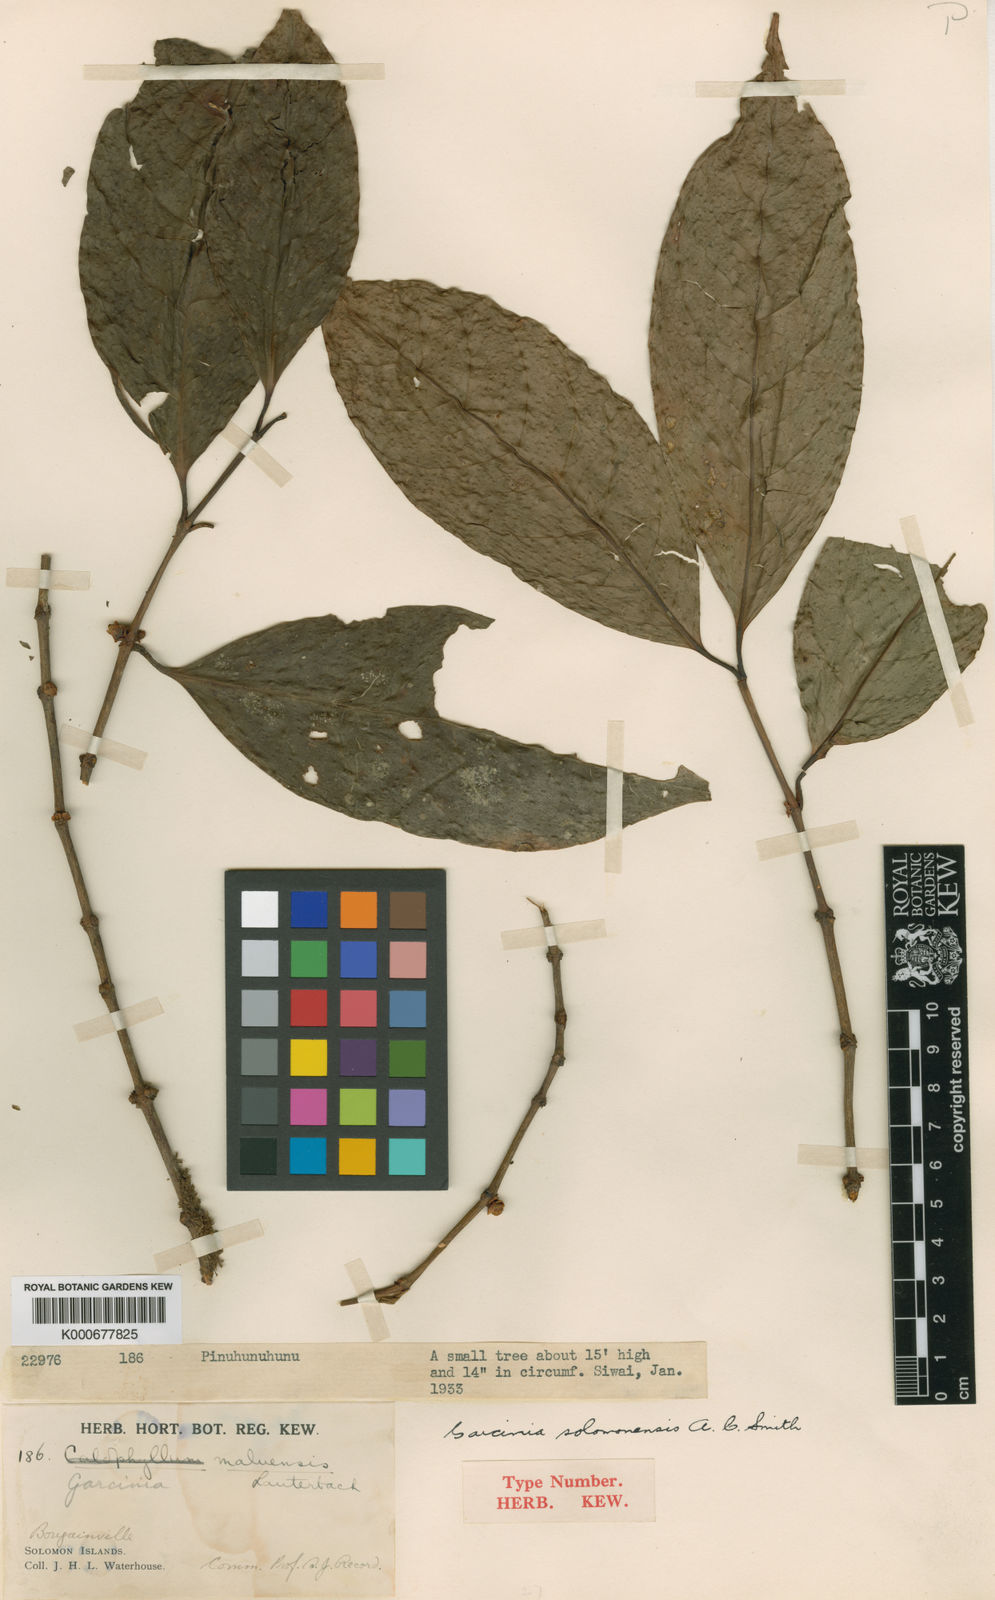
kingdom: Plantae
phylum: Tracheophyta
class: Magnoliopsida
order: Malpighiales
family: Clusiaceae
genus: Garcinia
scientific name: Garcinia solomonensis
